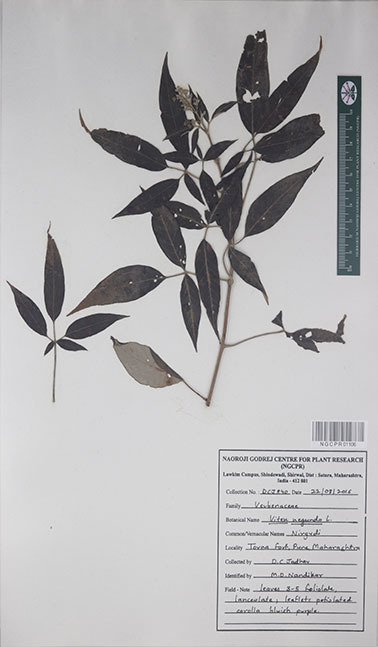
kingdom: Plantae
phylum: Tracheophyta
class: Magnoliopsida
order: Lamiales
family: Lamiaceae
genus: Vitex
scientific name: Vitex negundo
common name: Chinese chastetree
